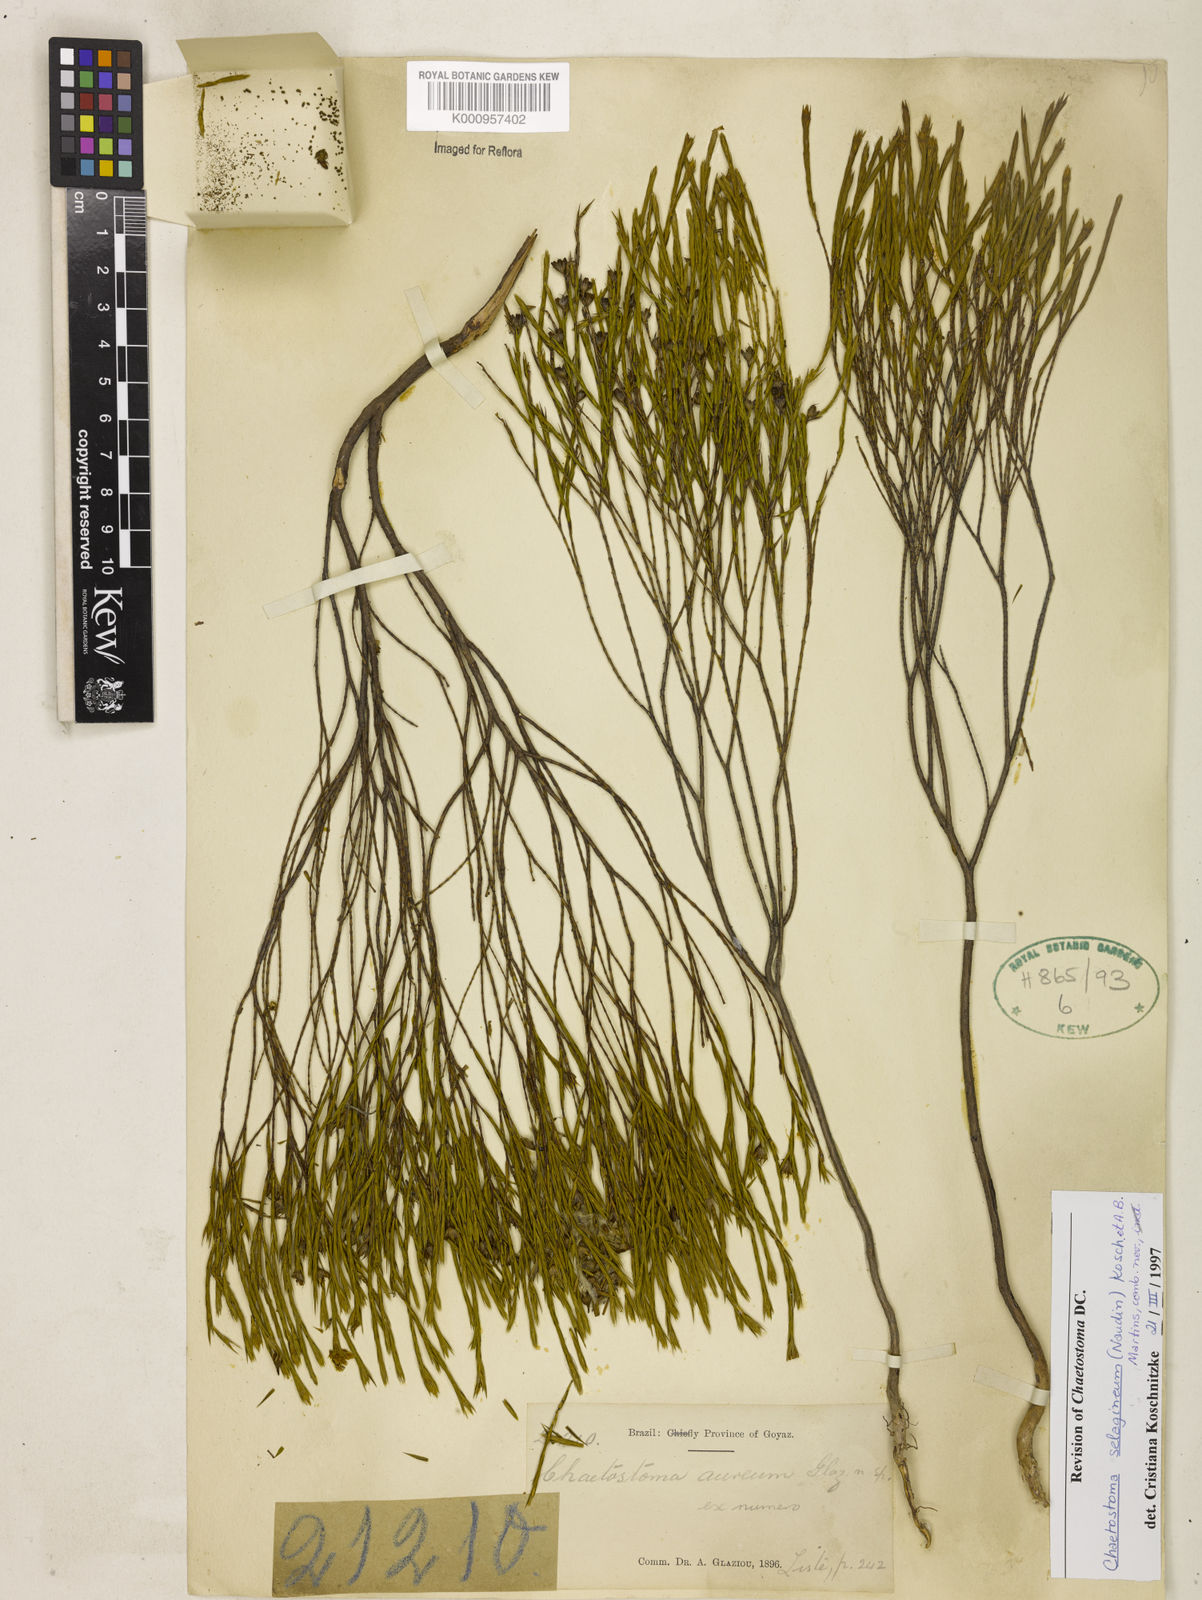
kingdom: Plantae
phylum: Tracheophyta
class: Magnoliopsida
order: Myrtales
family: Melastomataceae
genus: Microlicia
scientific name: Microlicia
